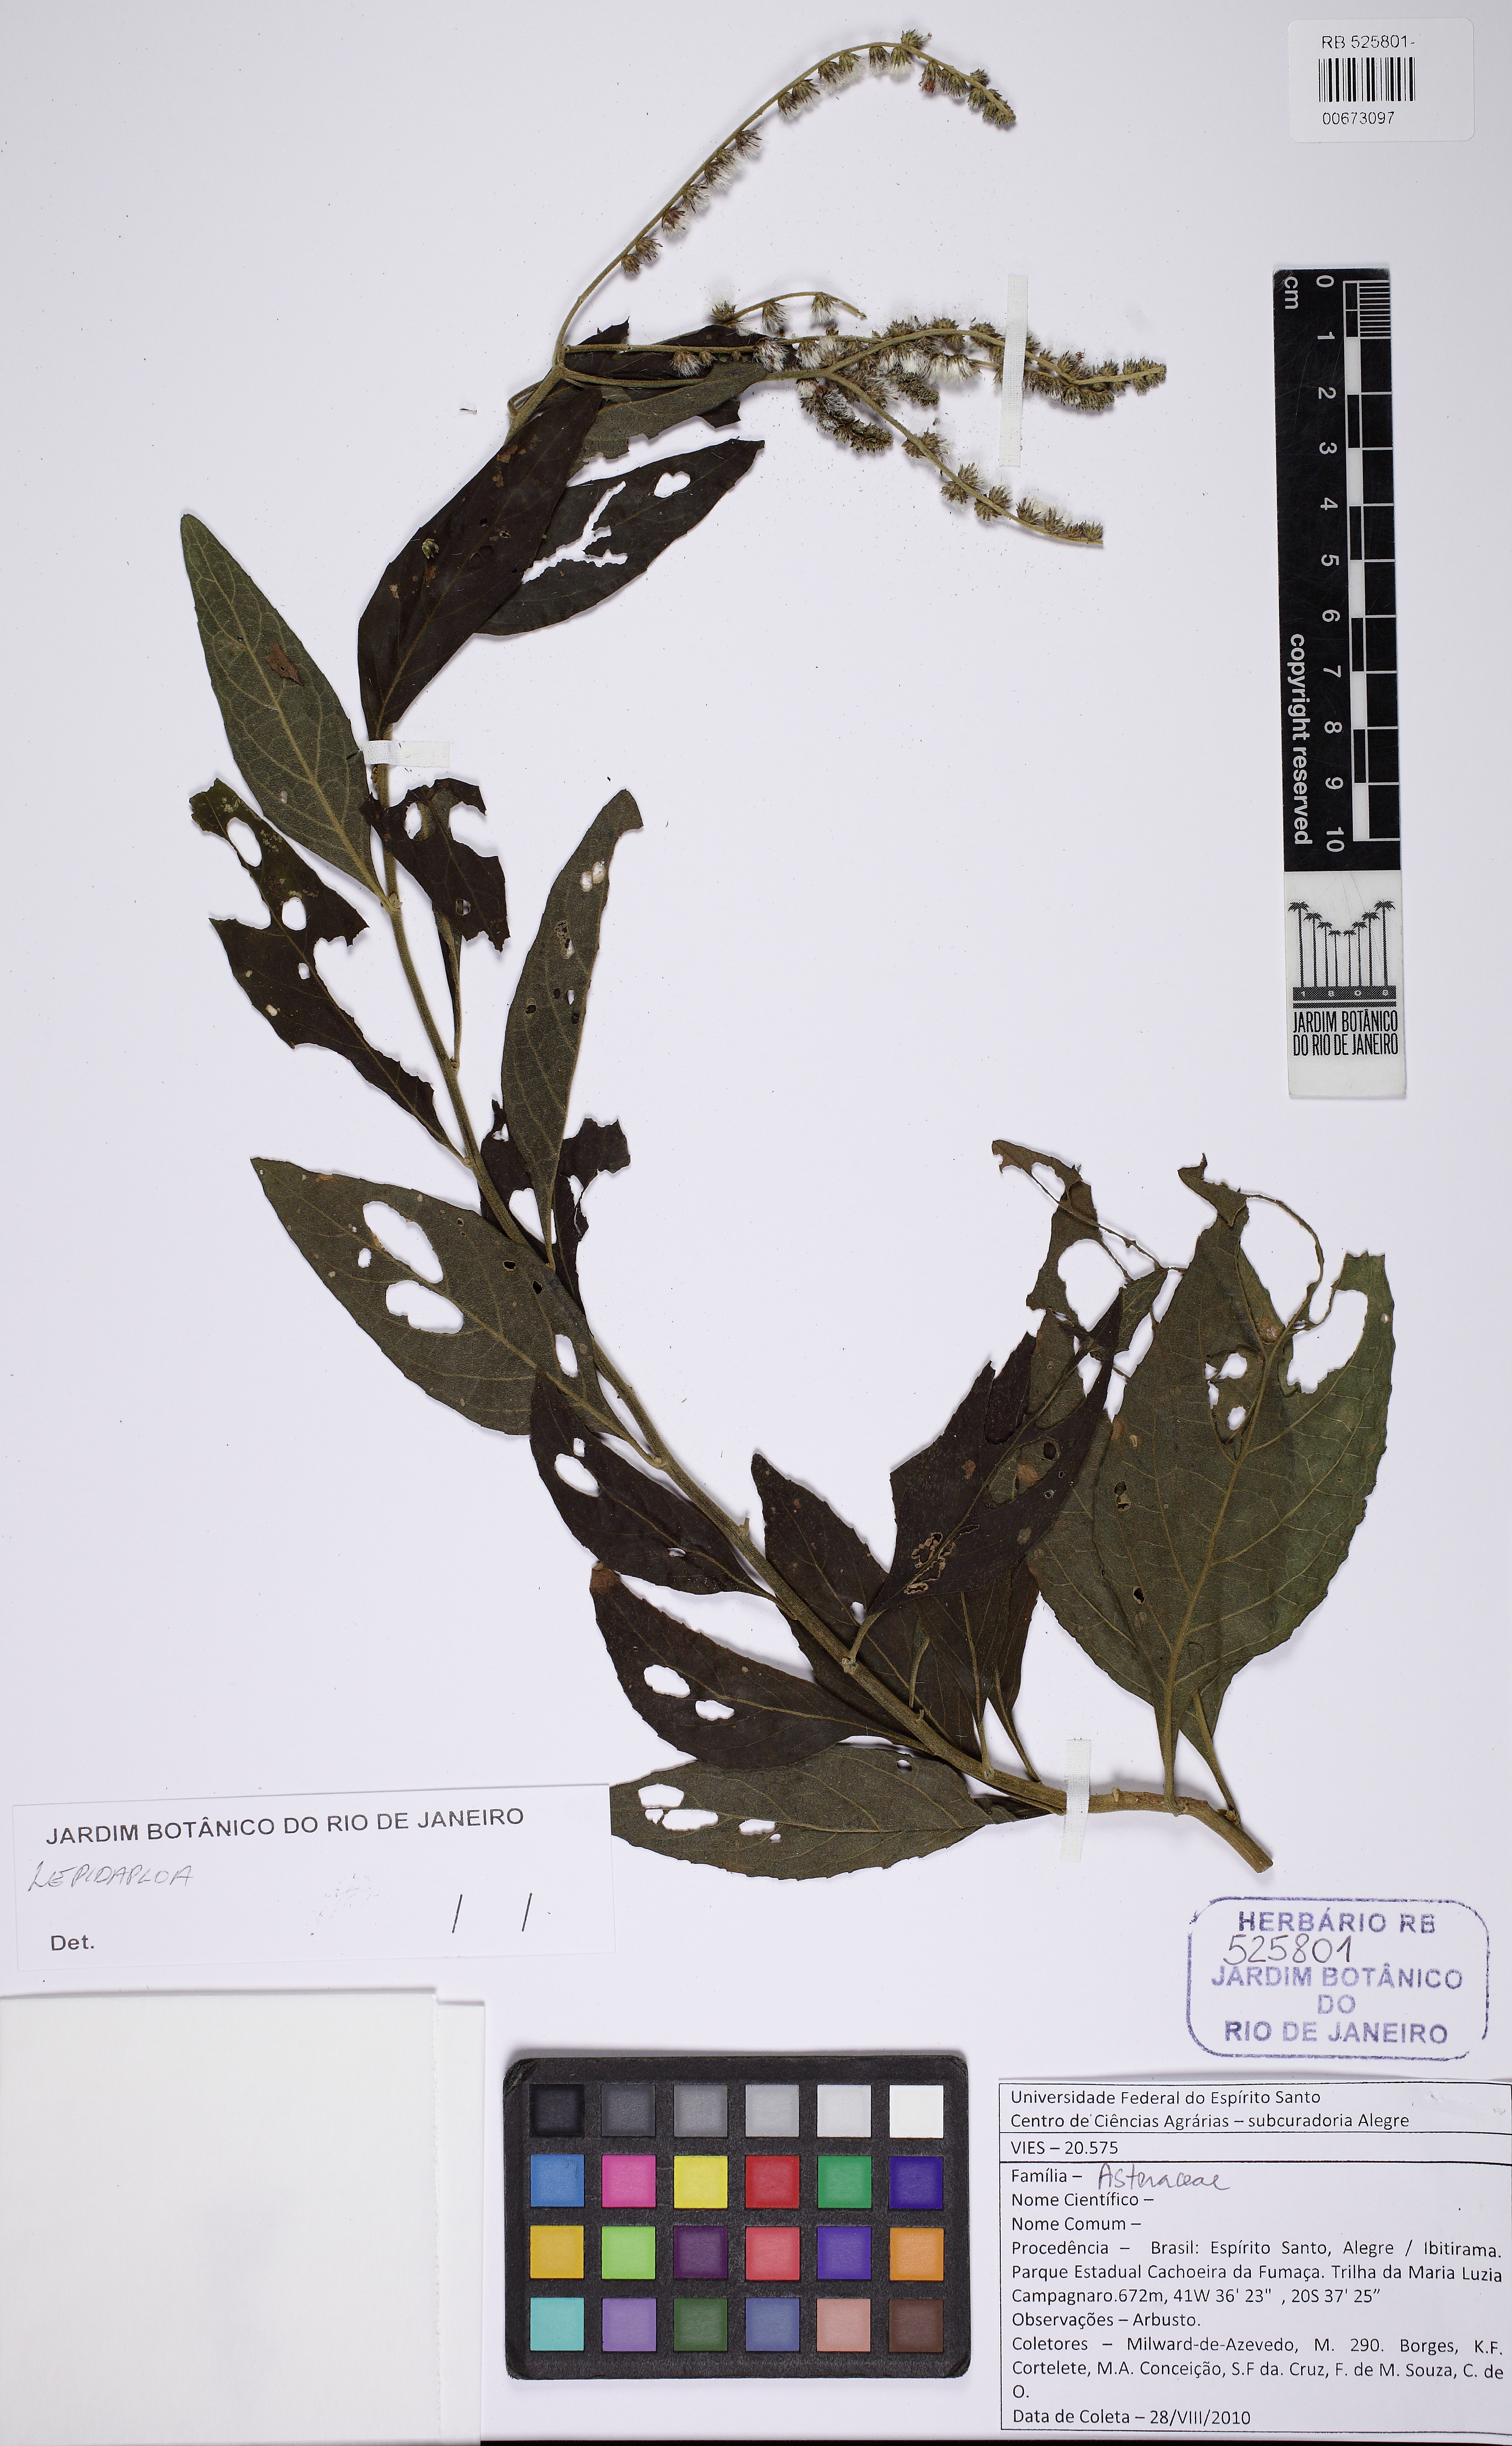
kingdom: Plantae
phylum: Tracheophyta
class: Magnoliopsida
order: Asterales
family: Asteraceae
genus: Lepidaploa
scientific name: Lepidaploa
